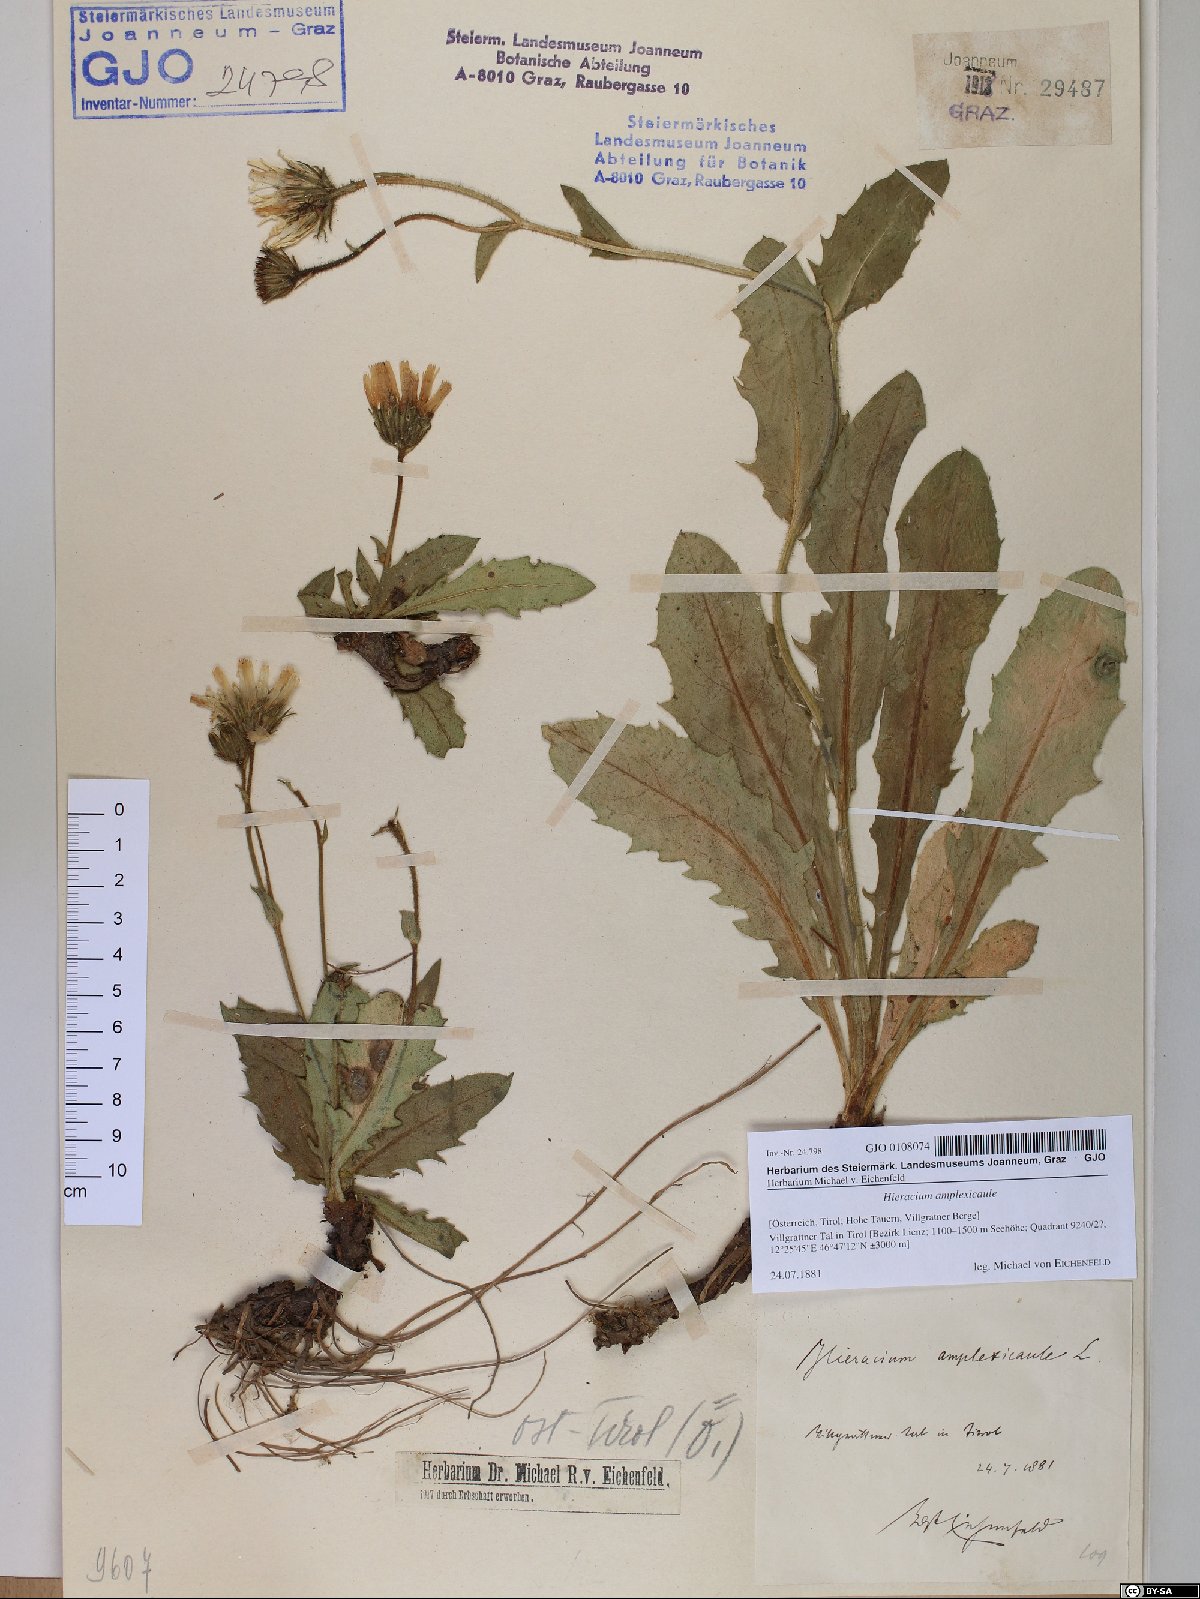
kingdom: Plantae
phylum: Tracheophyta
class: Magnoliopsida
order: Asterales
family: Asteraceae
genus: Hieracium
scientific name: Hieracium amplexicaule
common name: Sticky hawkweed
